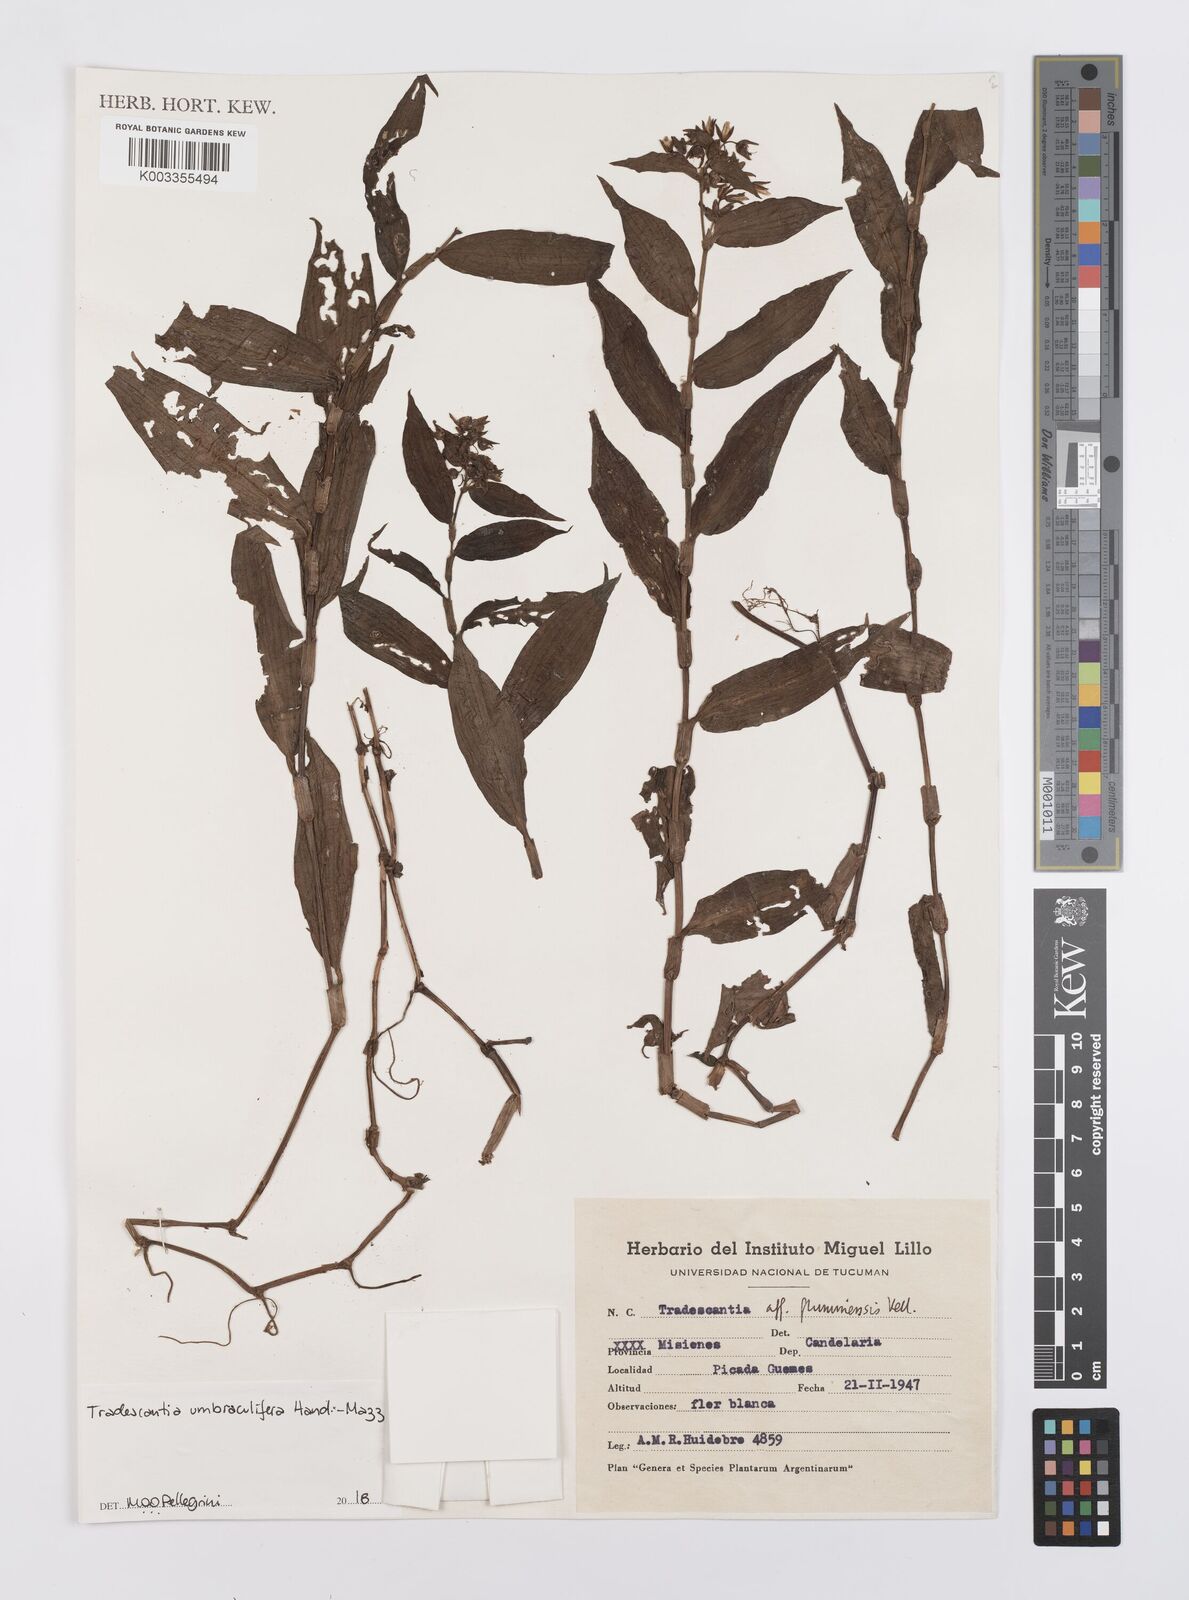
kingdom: Plantae
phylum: Tracheophyta
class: Liliopsida
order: Commelinales
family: Commelinaceae
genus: Tradescantia
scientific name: Tradescantia umbraculifera
